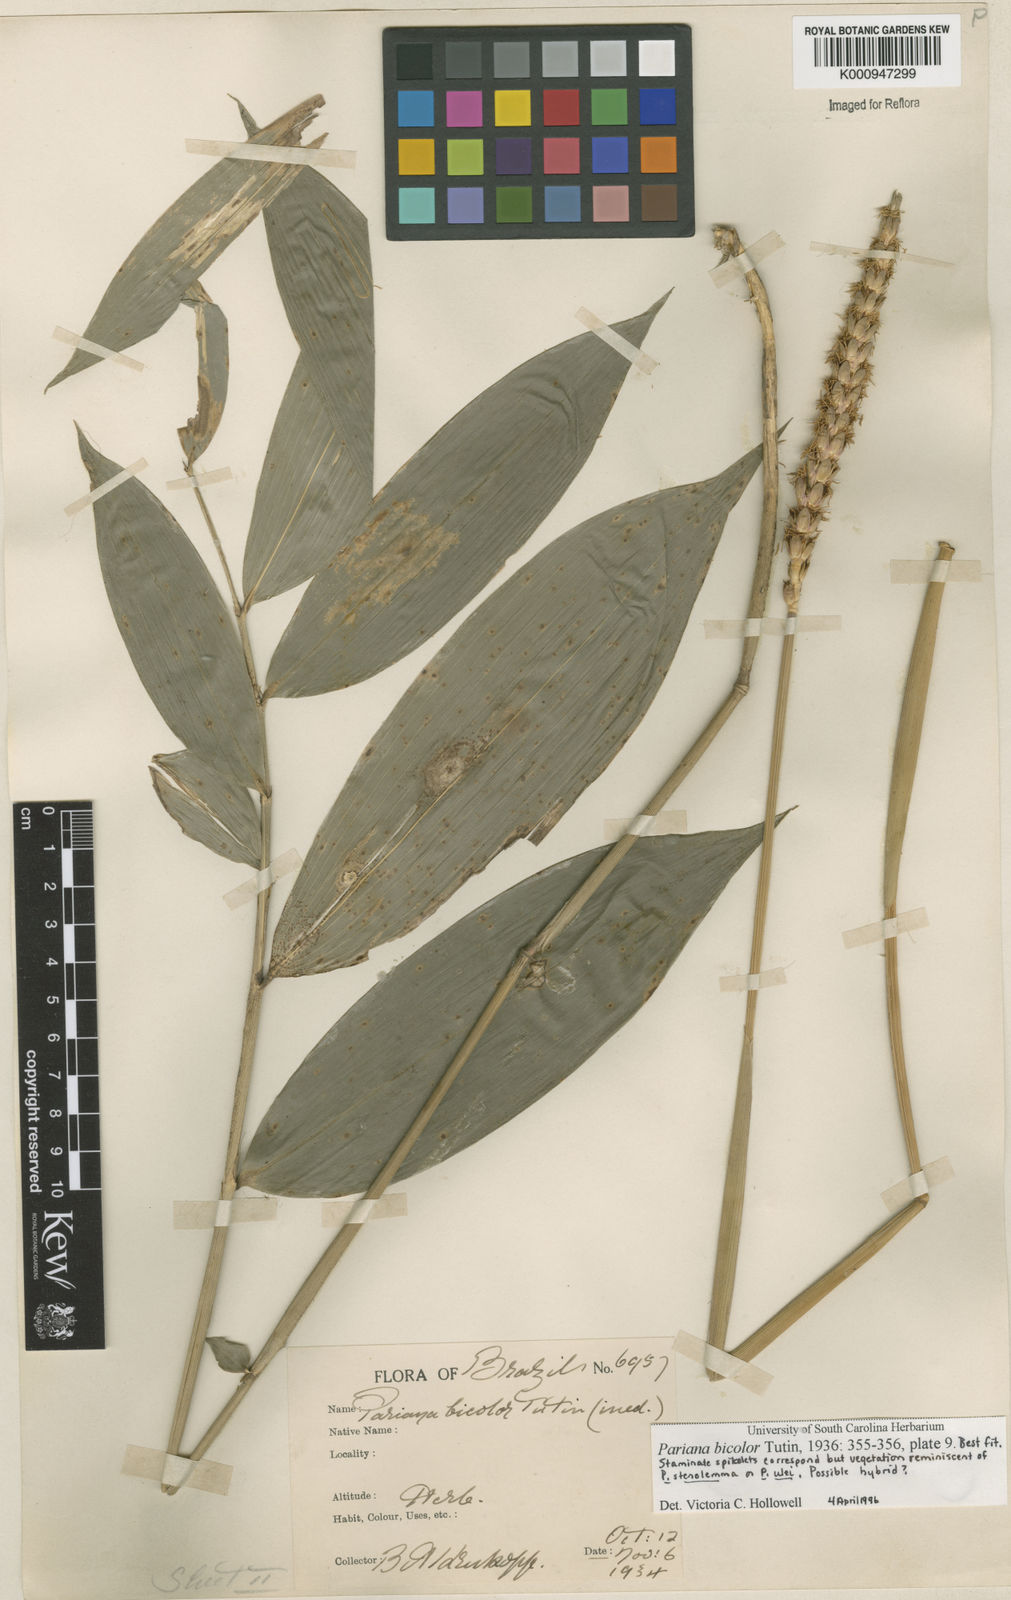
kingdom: Plantae
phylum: Tracheophyta
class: Liliopsida
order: Poales
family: Poaceae
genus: Pariana
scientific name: Pariana bicolor
